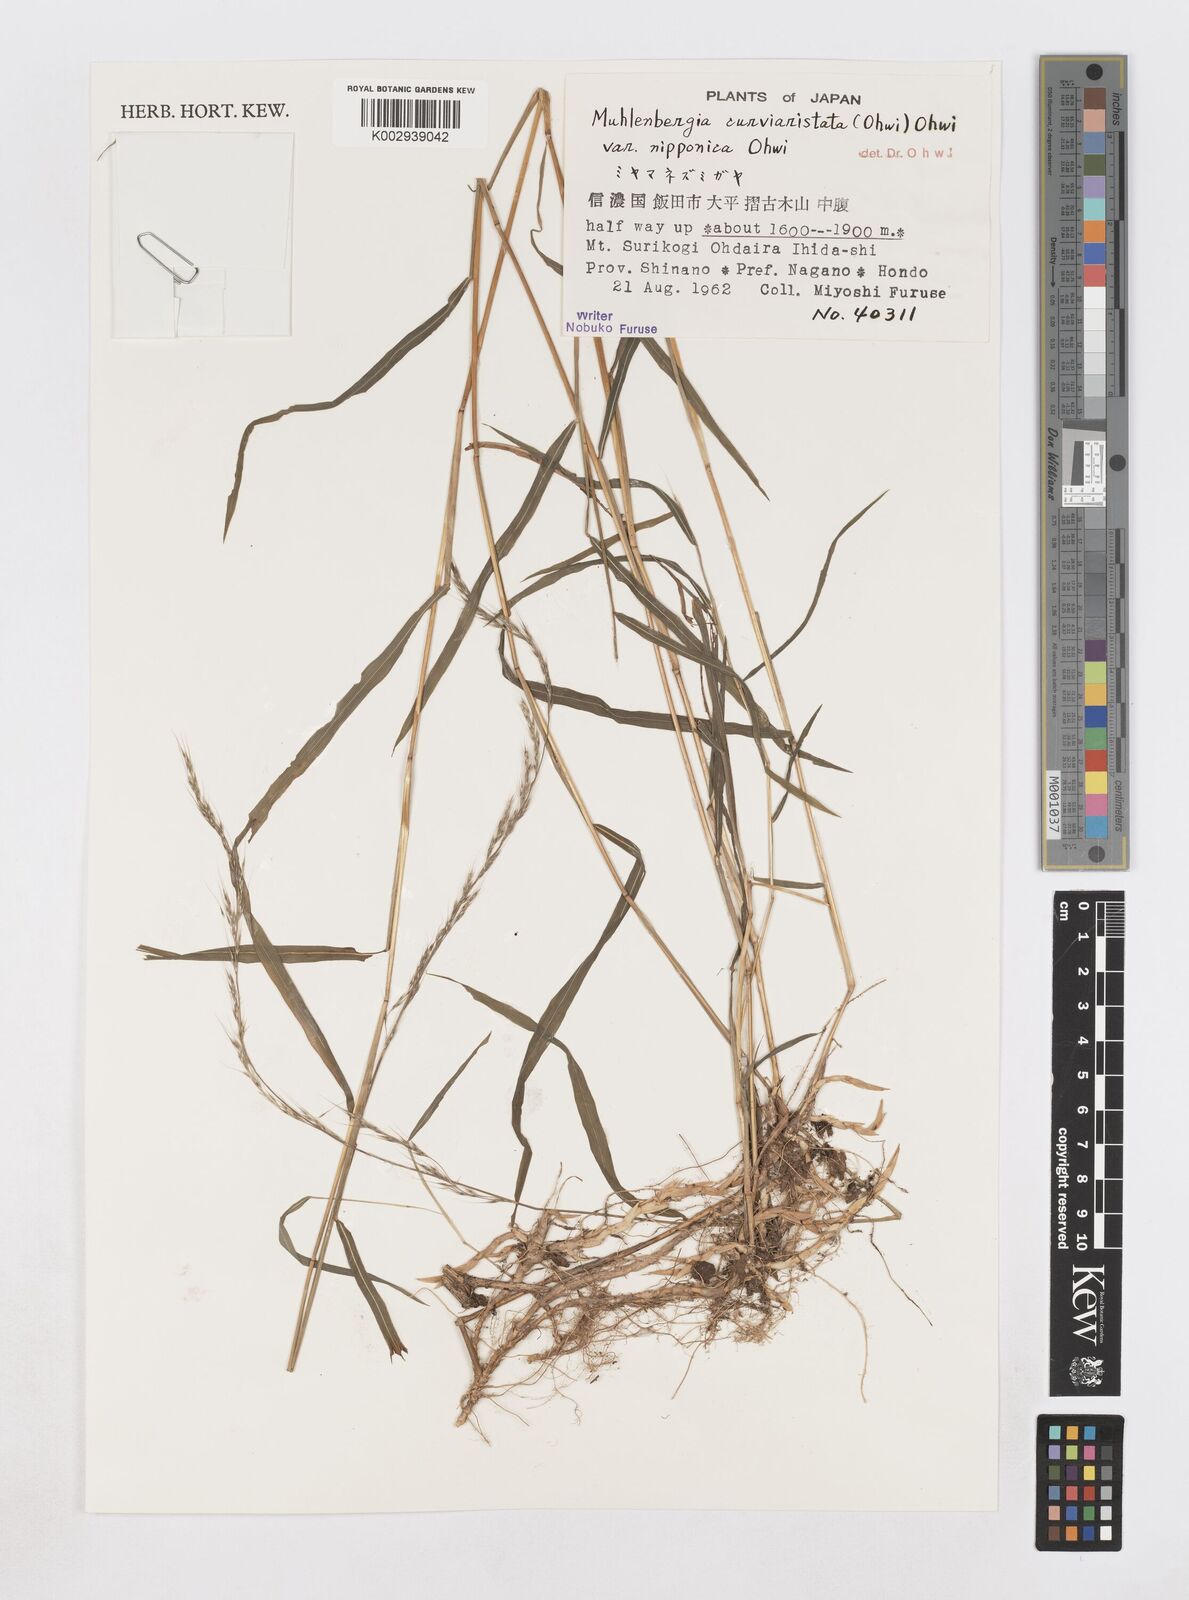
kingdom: Plantae
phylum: Tracheophyta
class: Liliopsida
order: Poales
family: Poaceae
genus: Muhlenbergia
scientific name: Muhlenbergia curviaristata
